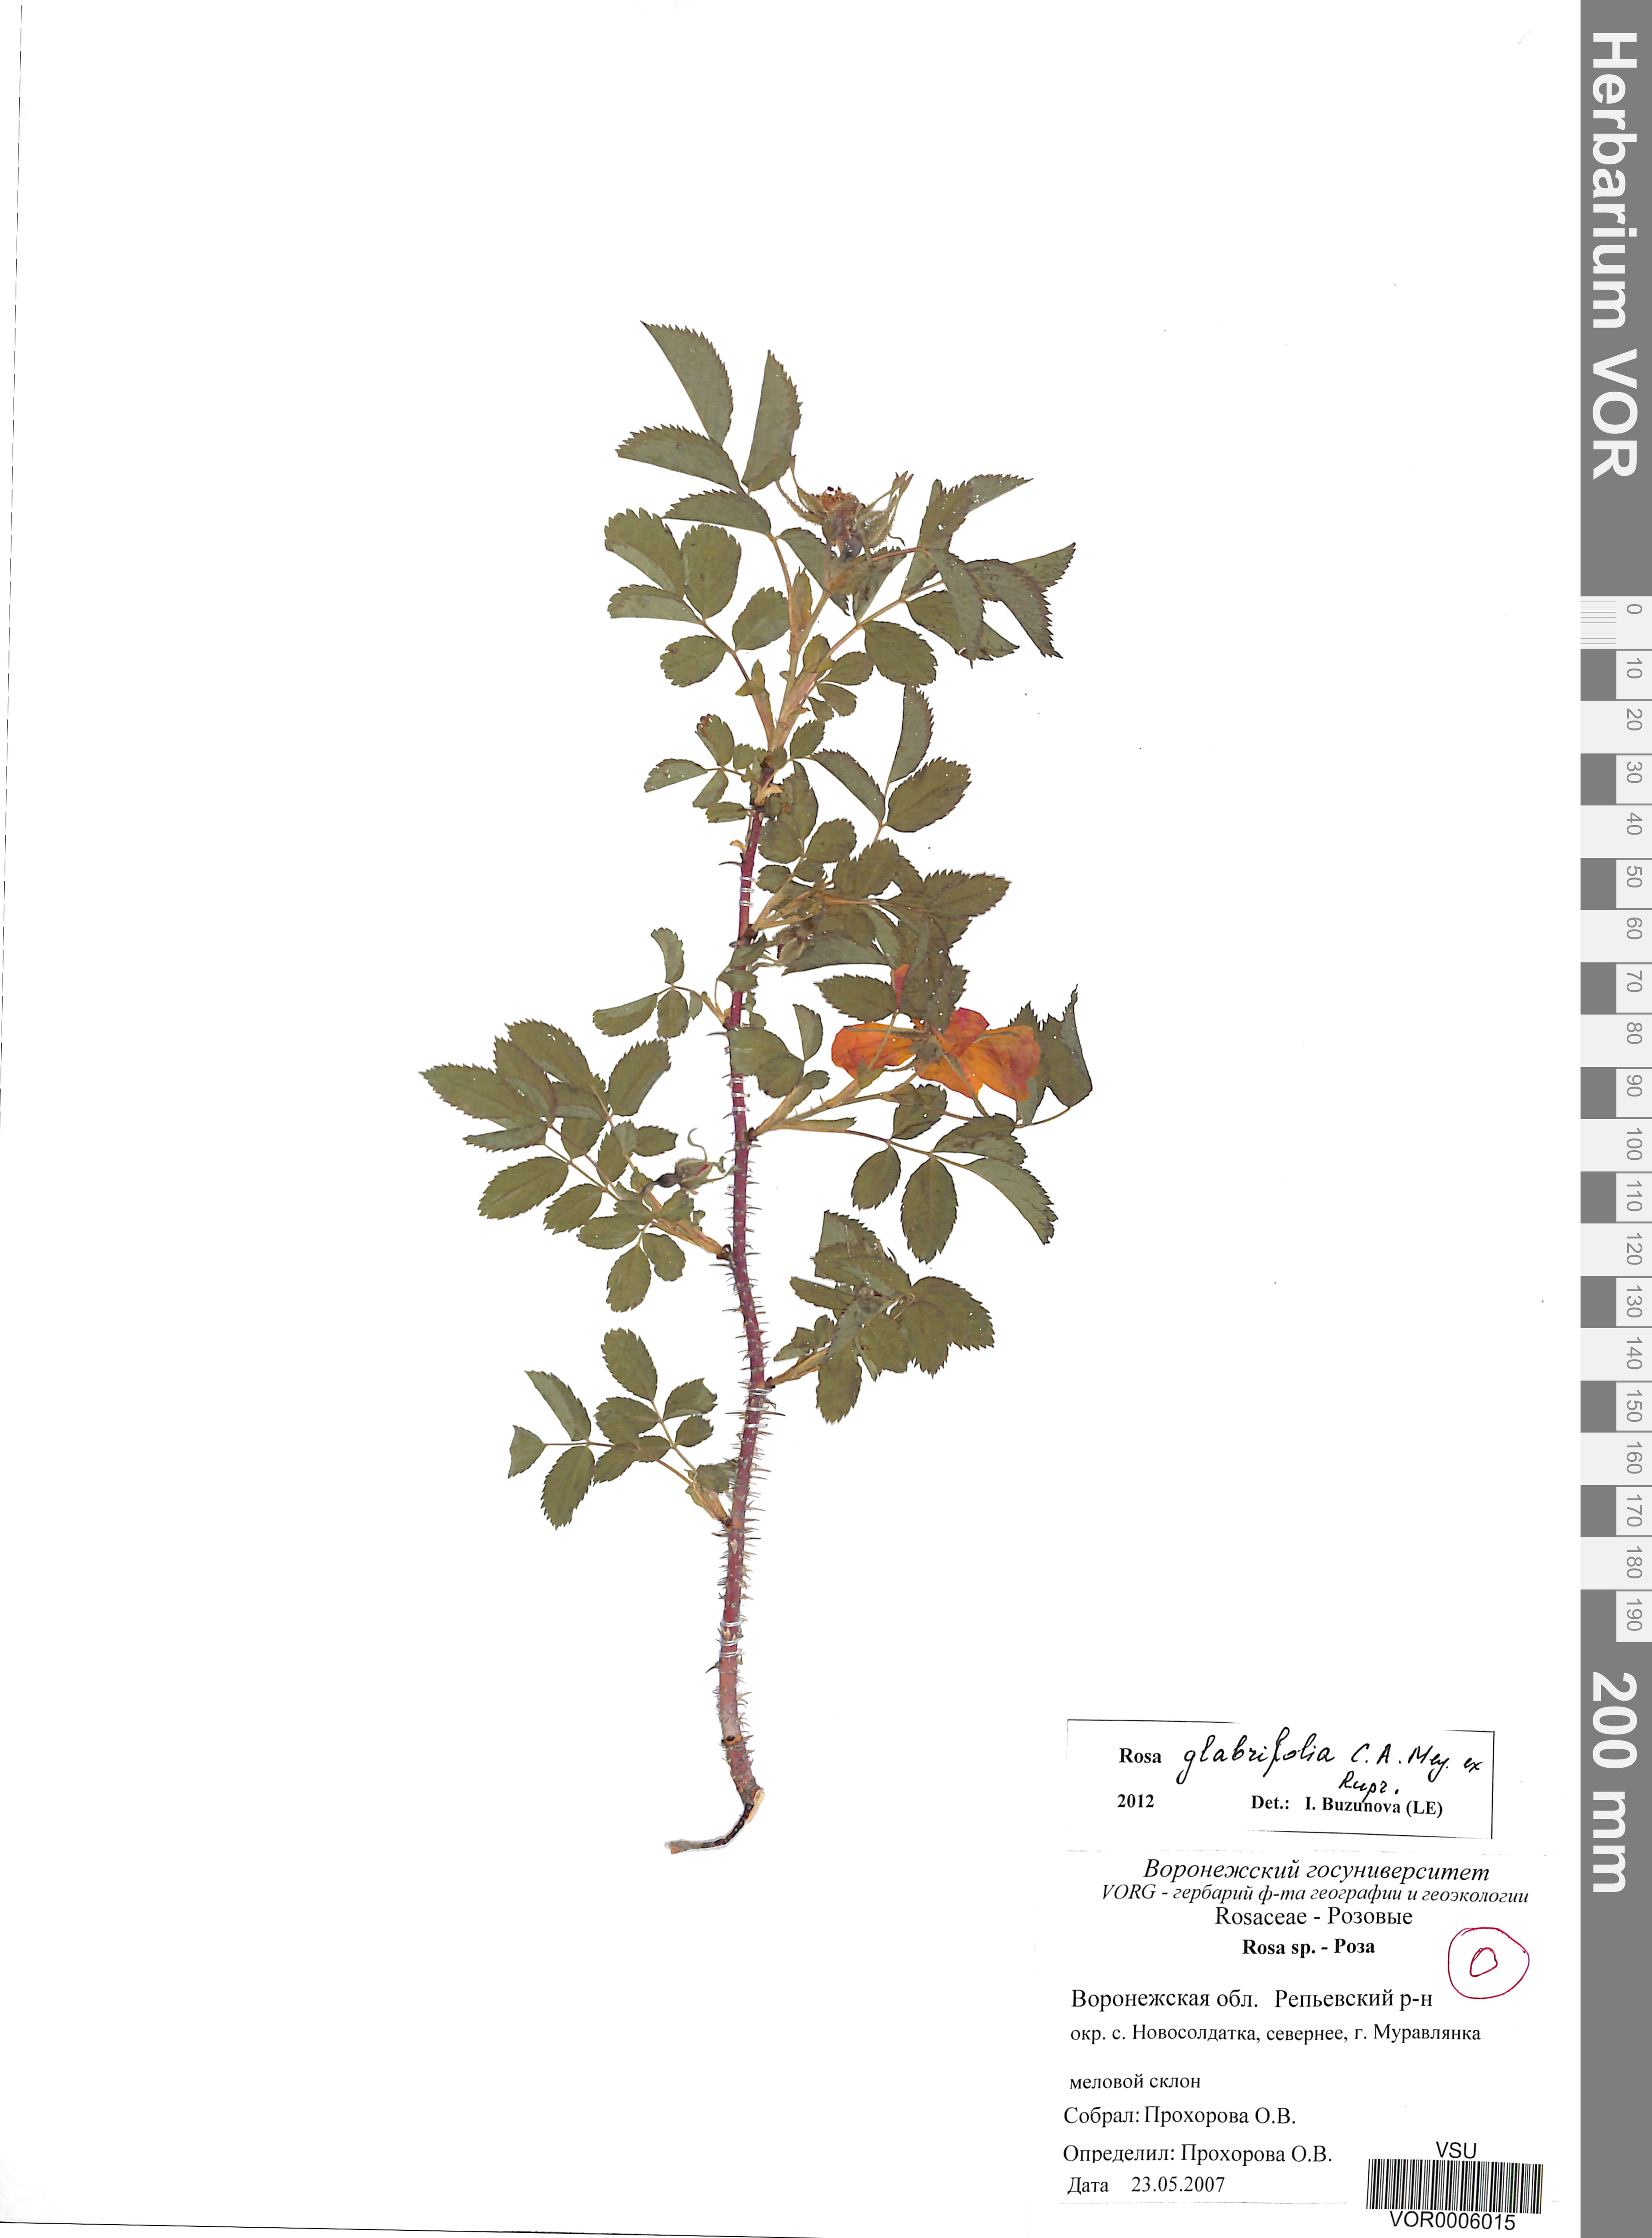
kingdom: Plantae
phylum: Tracheophyta
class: Magnoliopsida
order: Rosales
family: Rosaceae
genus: Rosa
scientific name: Rosa glabrifolia
